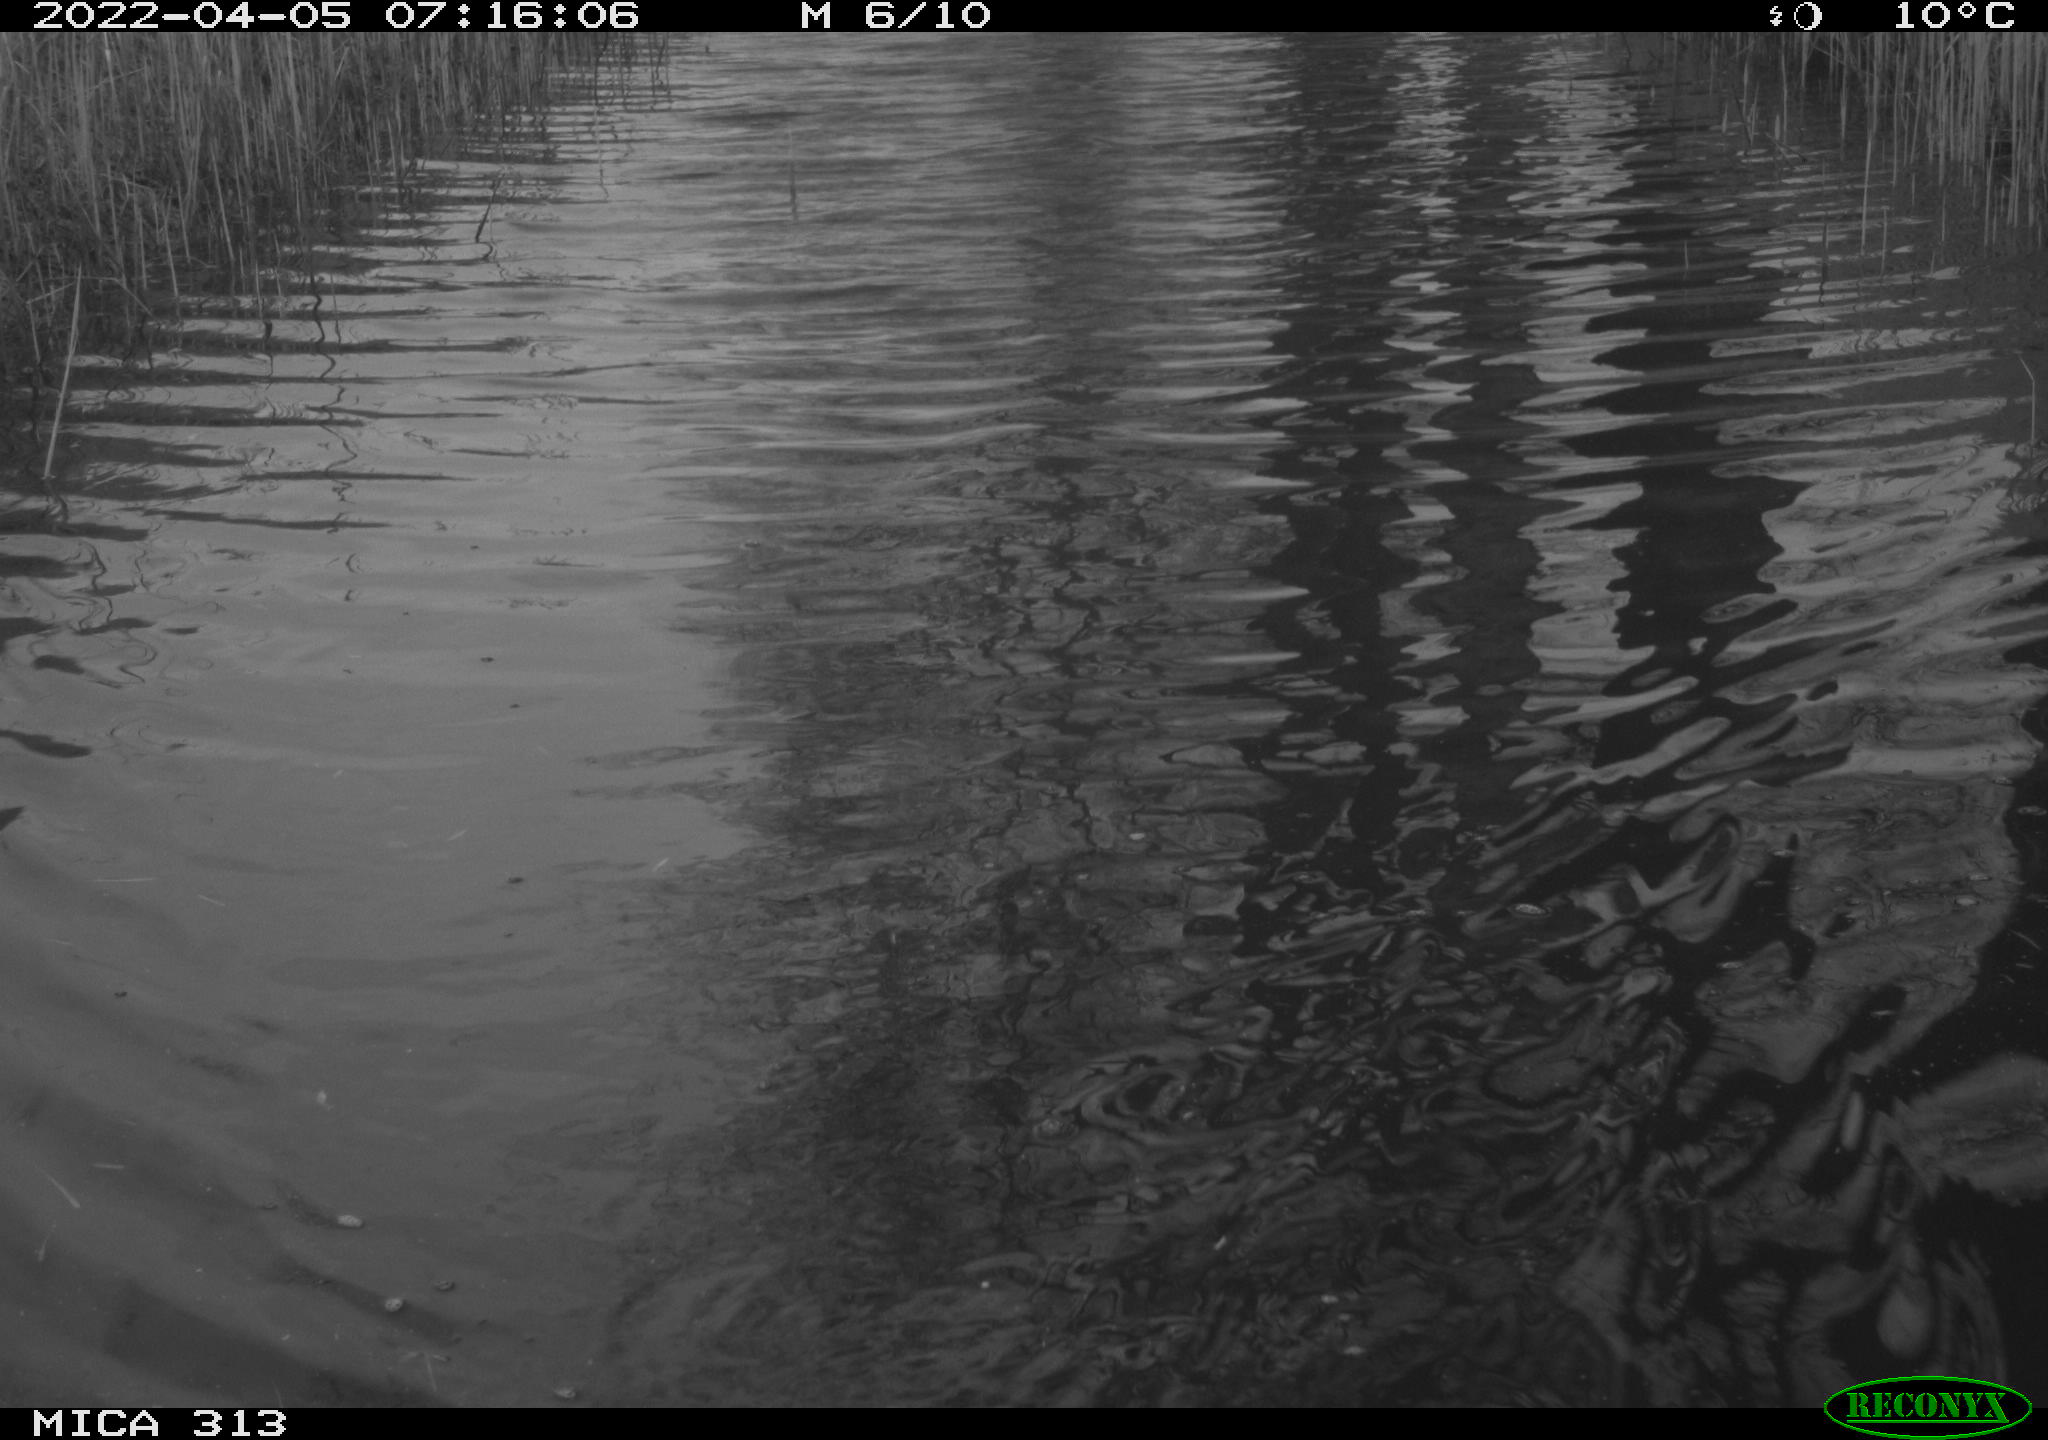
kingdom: Animalia
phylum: Chordata
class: Aves
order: Gruiformes
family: Rallidae
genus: Fulica
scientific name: Fulica atra
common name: Eurasian coot
